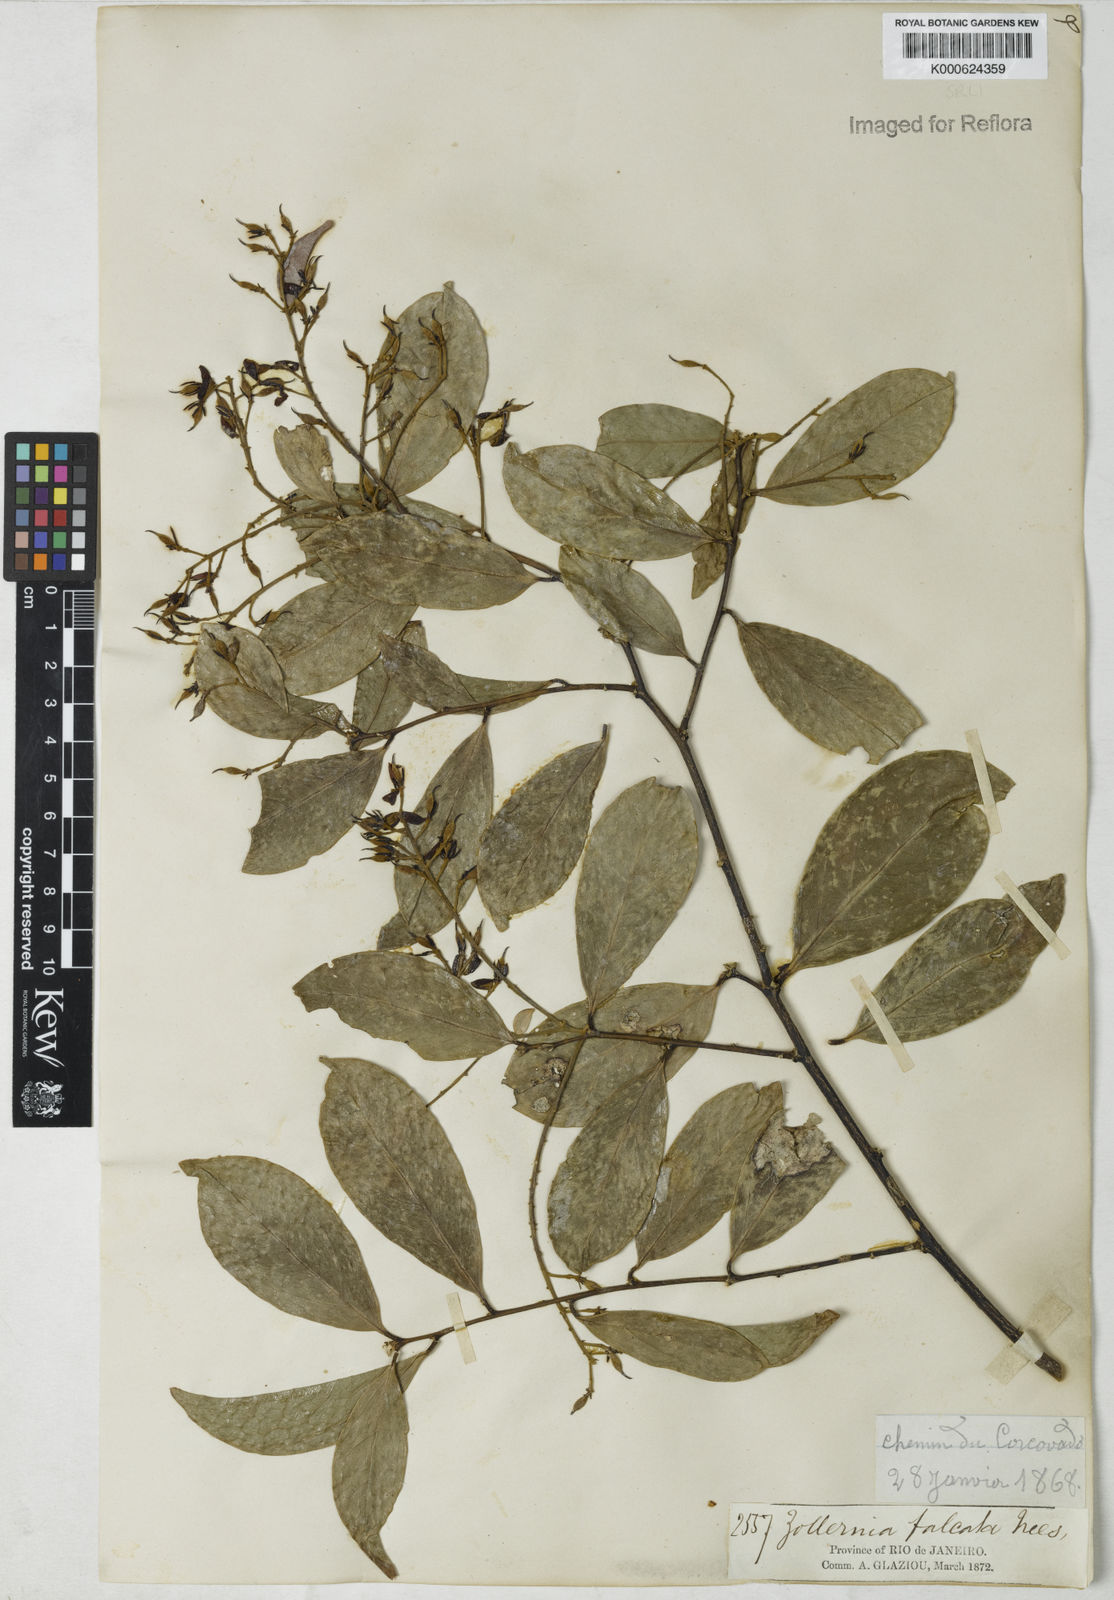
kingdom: Plantae
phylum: Tracheophyta
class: Magnoliopsida
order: Fabales
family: Fabaceae
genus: Zollernia
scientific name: Zollernia glabra
